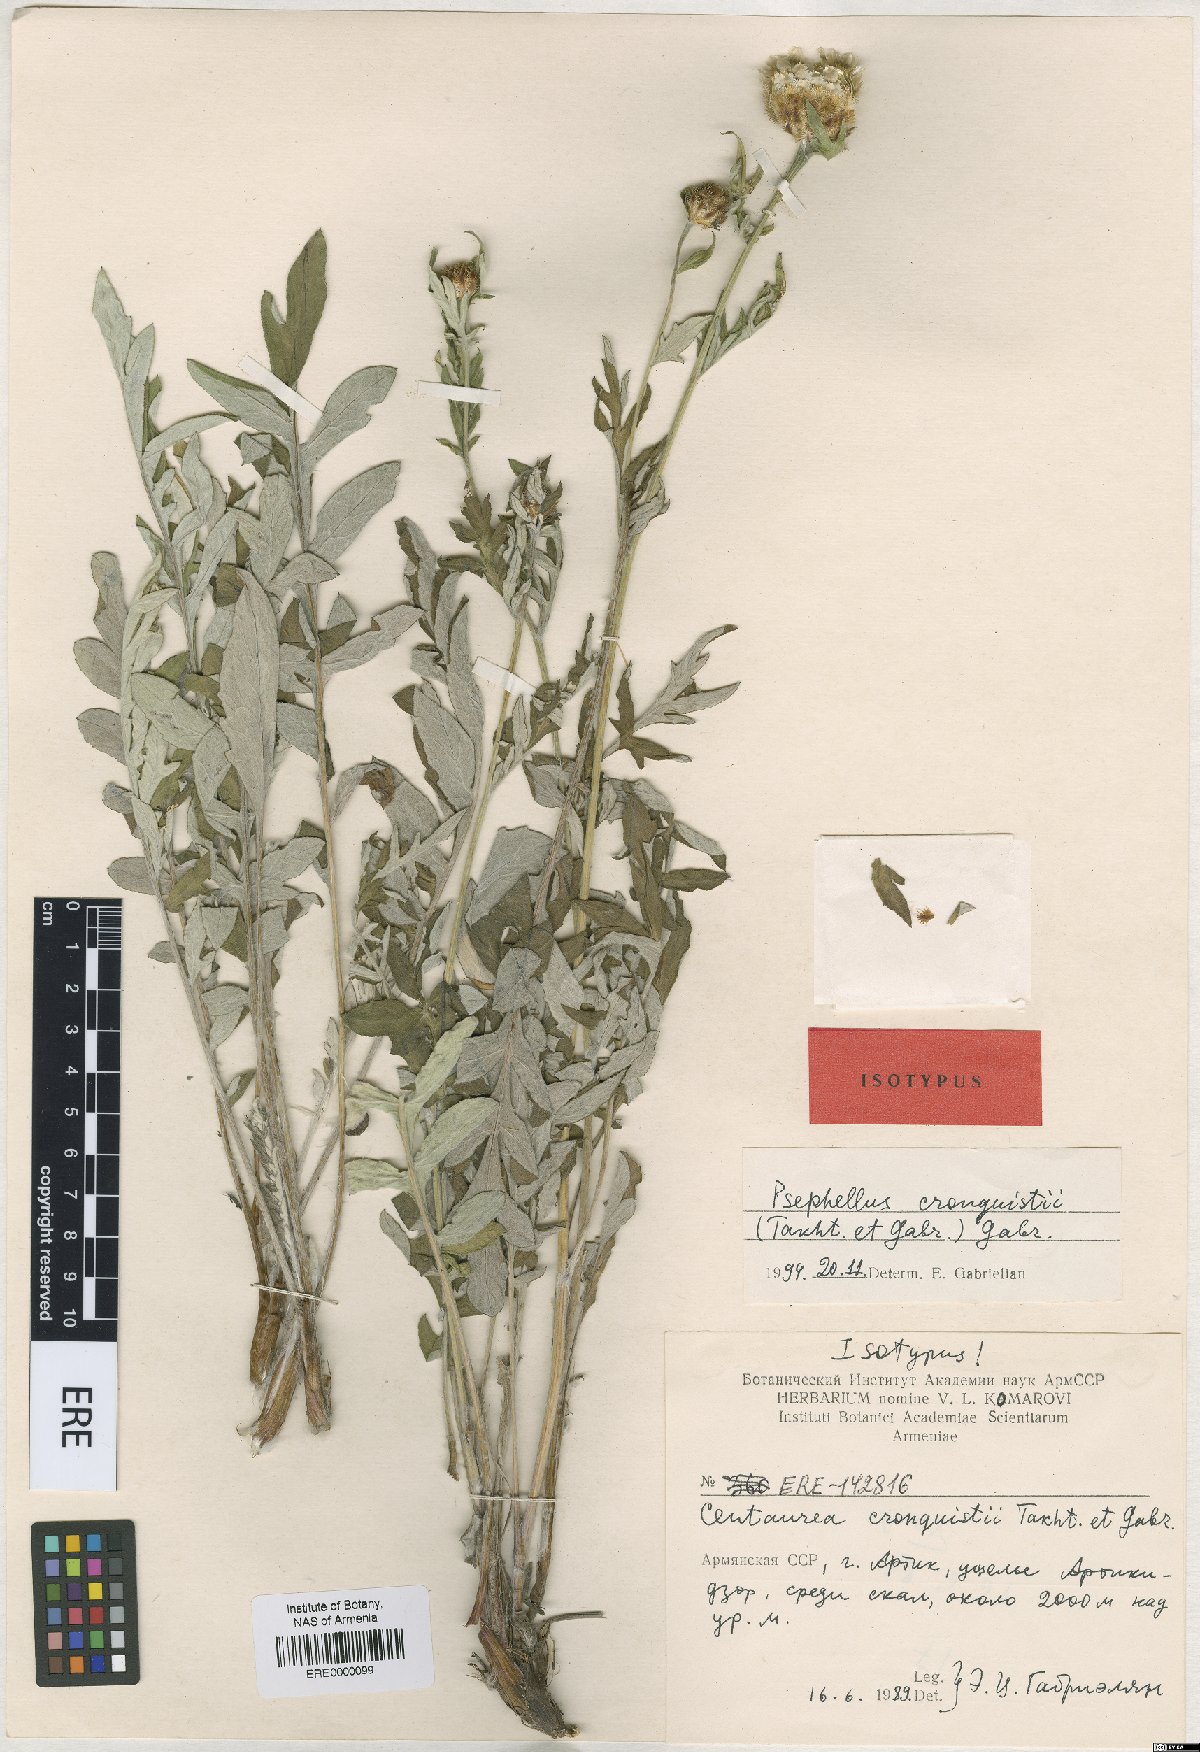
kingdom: Plantae
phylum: Tracheophyta
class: Magnoliopsida
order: Asterales
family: Asteraceae
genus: Psephellus
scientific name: Psephellus cronquistii
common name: Cronquists's cornflower
